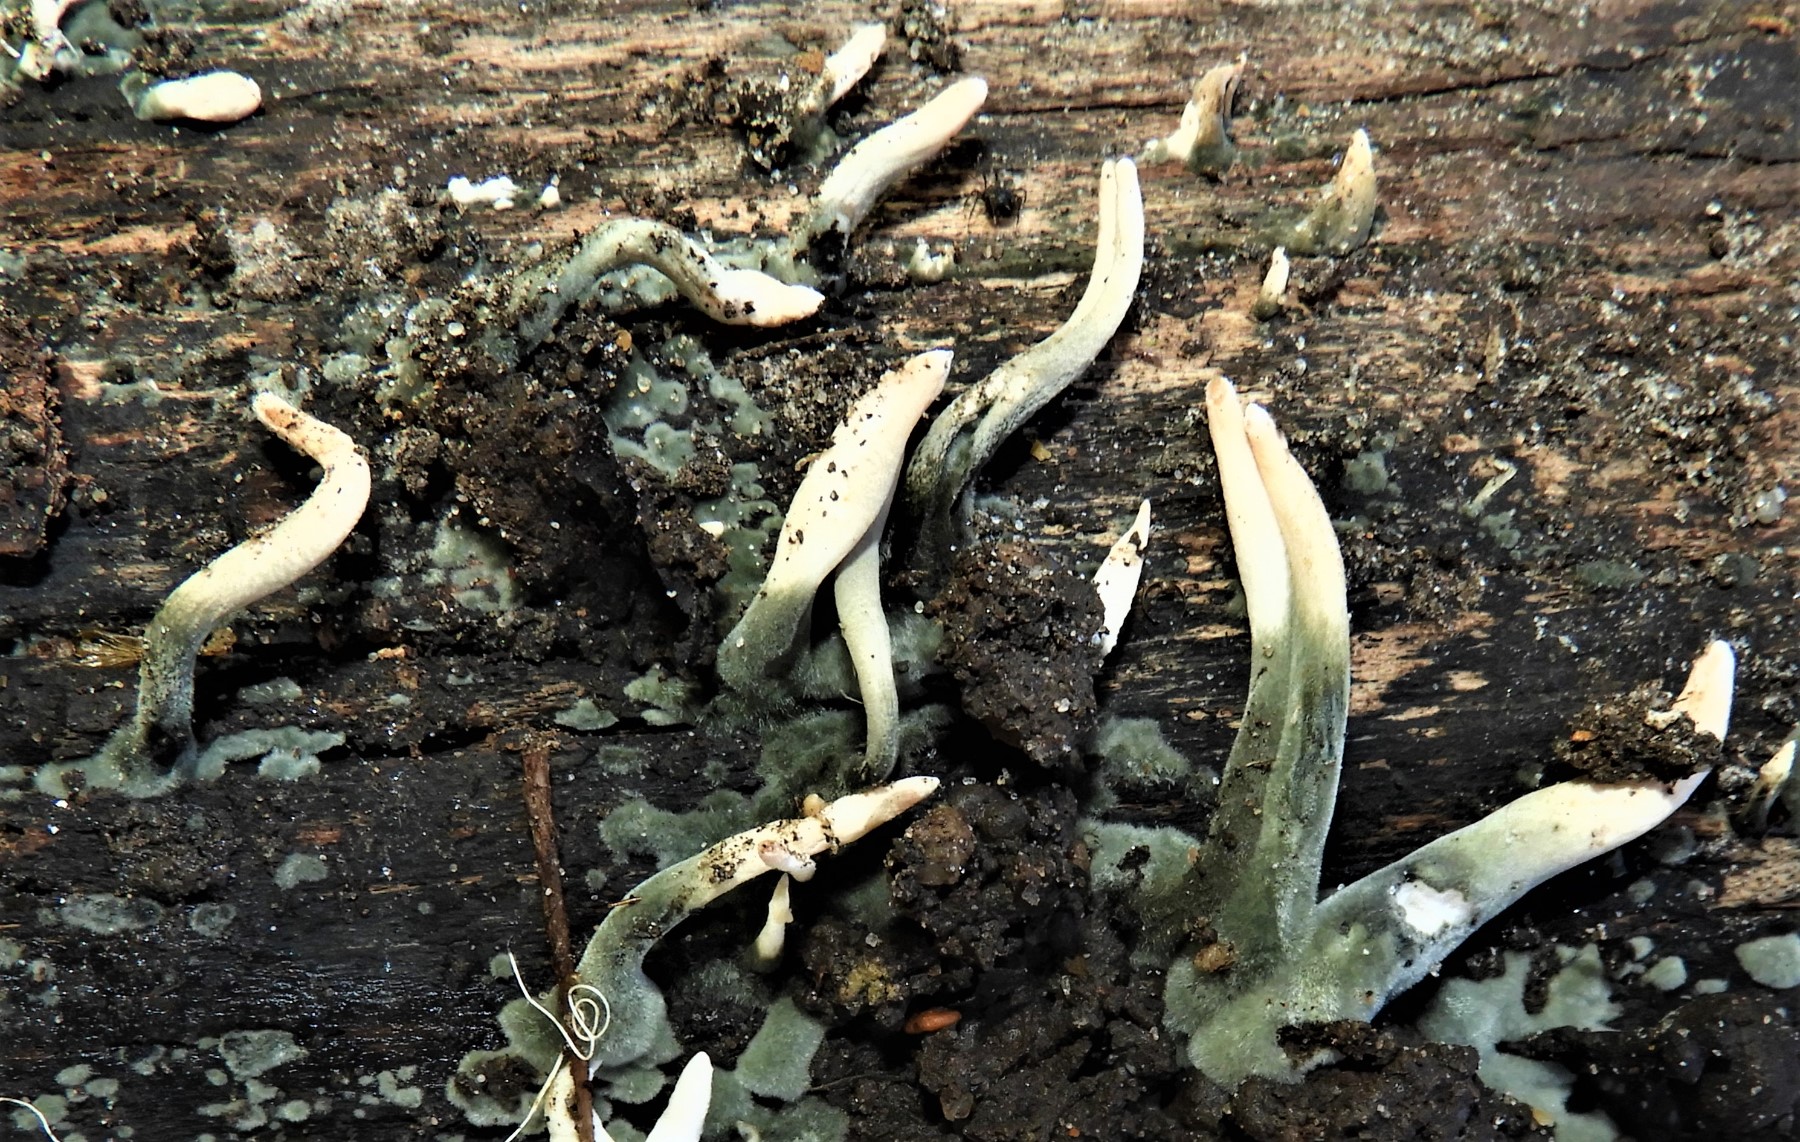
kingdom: Fungi
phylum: Ascomycota
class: Sordariomycetes
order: Xylariales
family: Xylariaceae
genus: Xylaria
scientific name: Xylaria longipes
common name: slank stødsvamp
